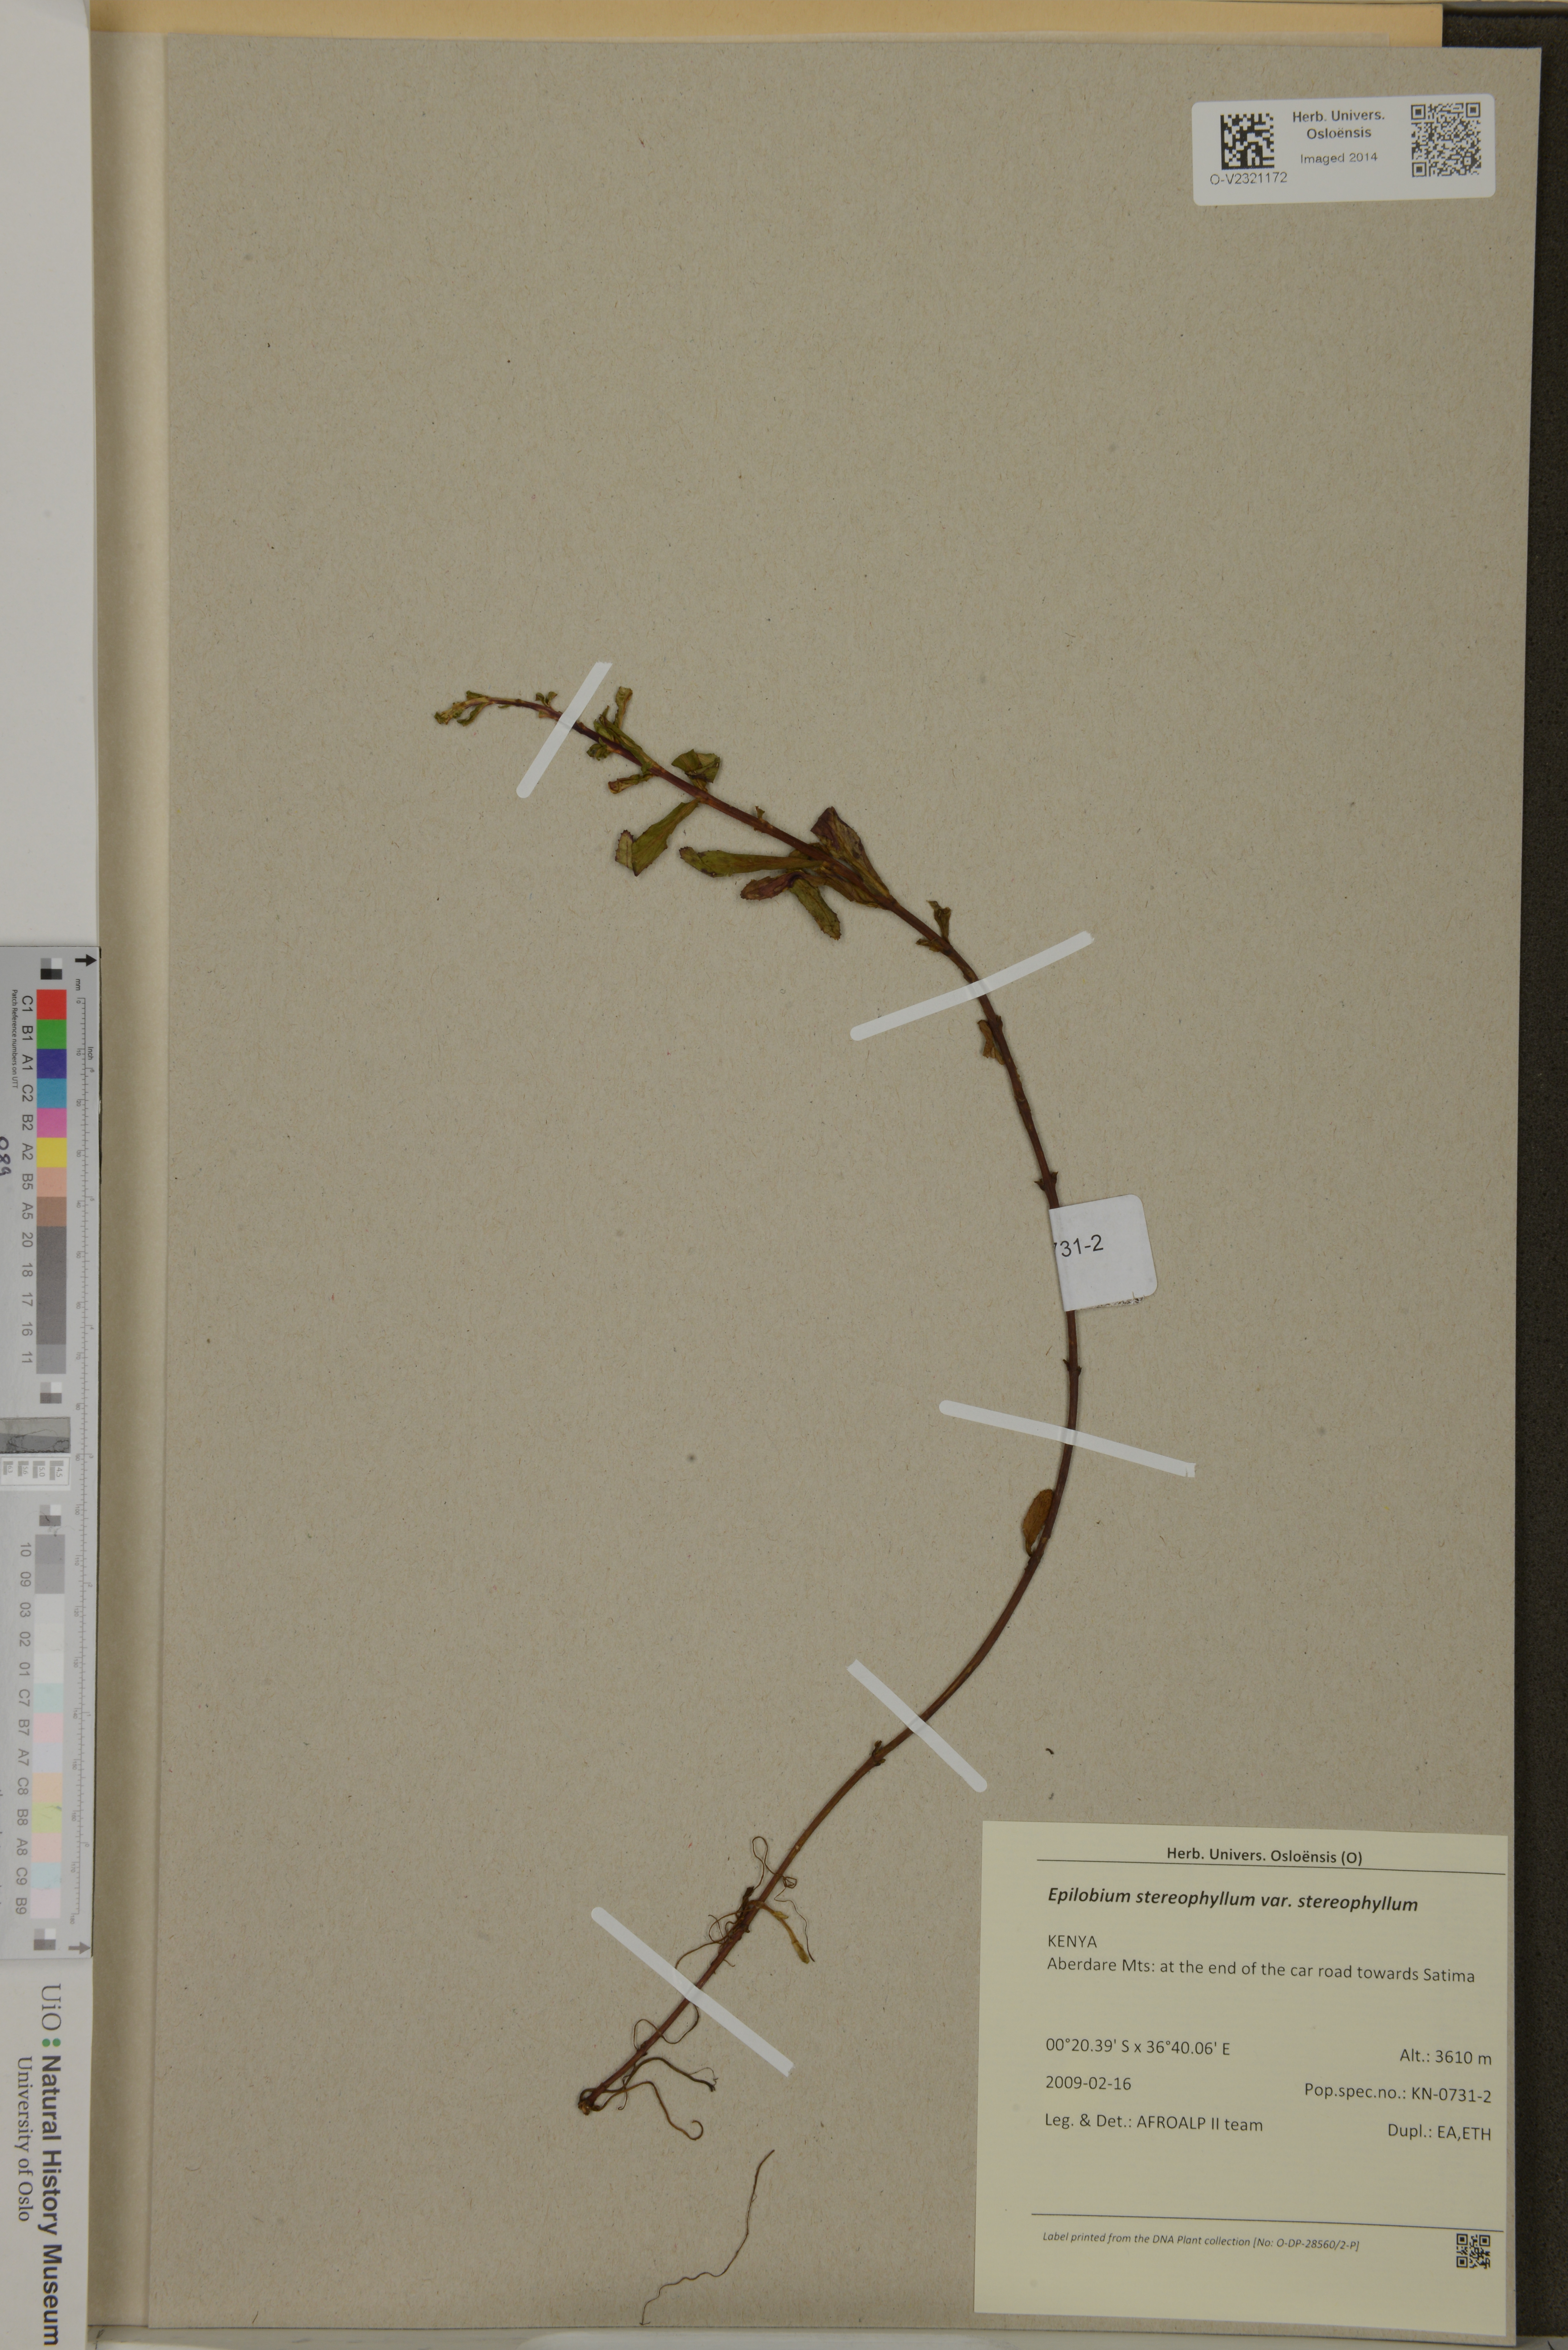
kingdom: Plantae
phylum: Tracheophyta
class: Magnoliopsida
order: Myrtales
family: Onagraceae
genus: Epilobium
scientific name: Epilobium stereophyllum
